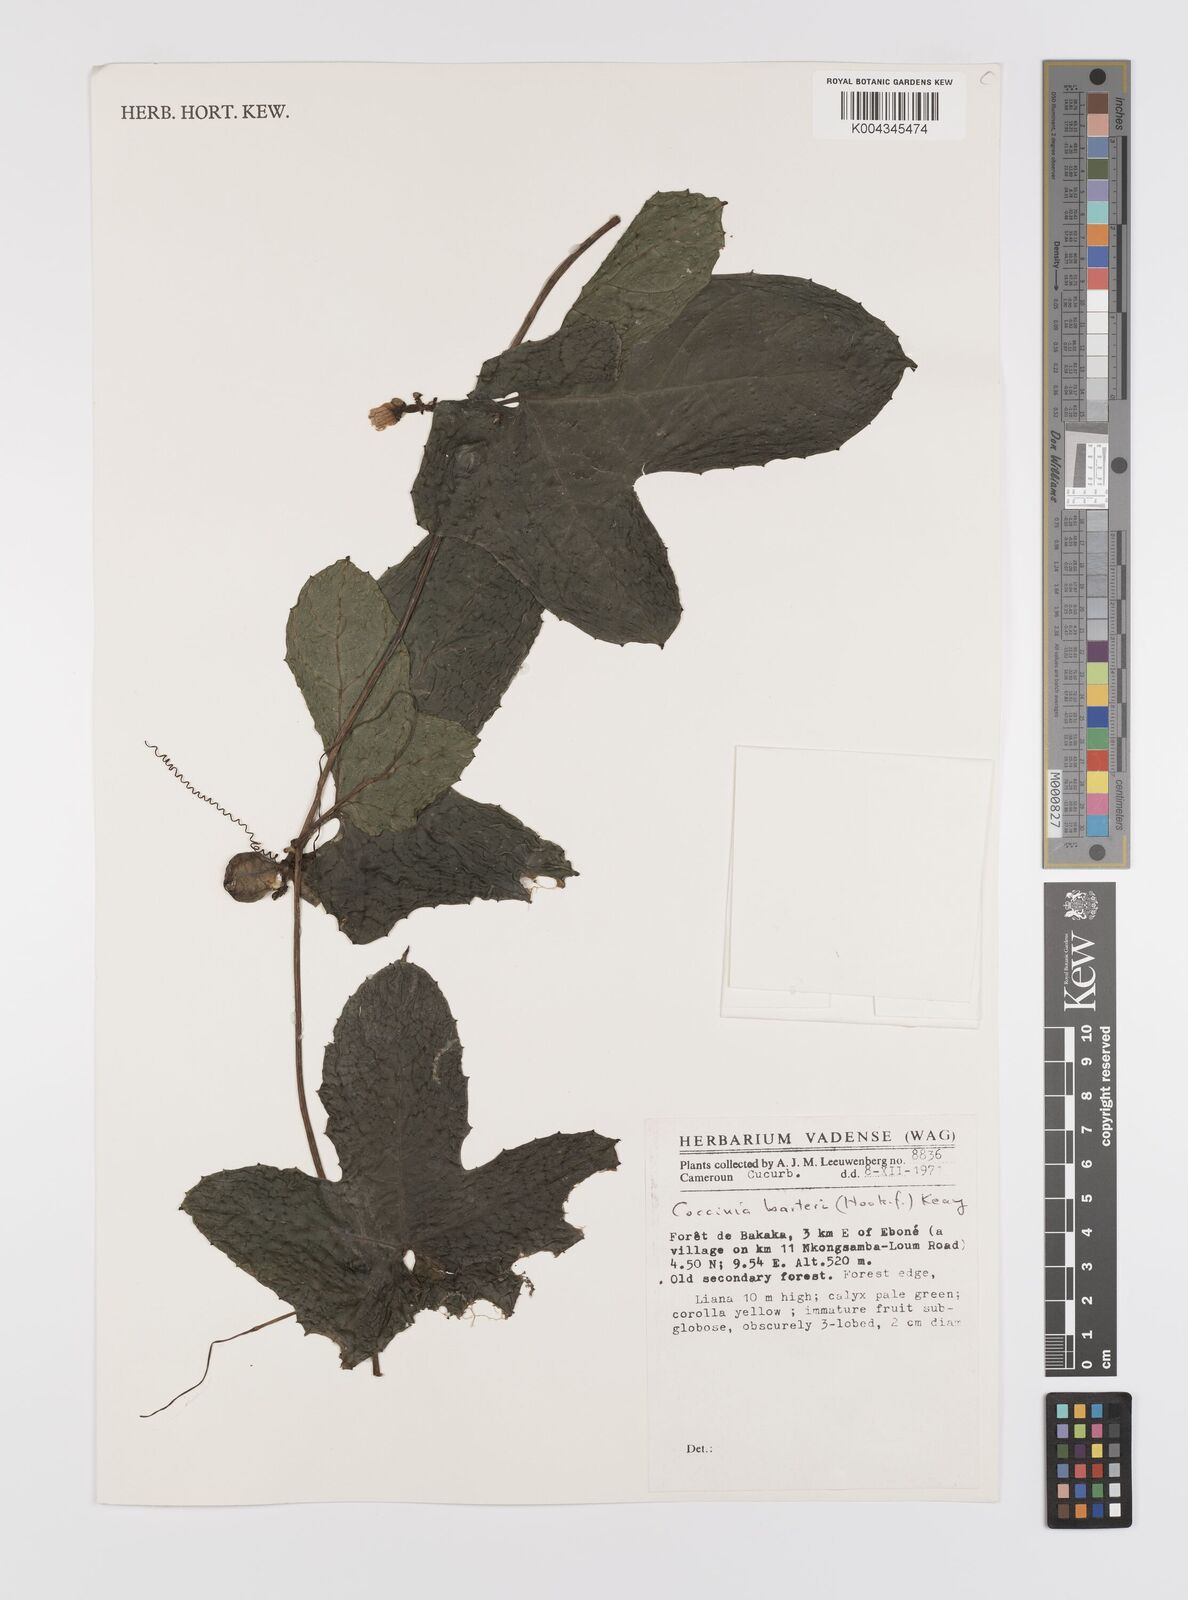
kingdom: Plantae
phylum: Tracheophyta
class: Magnoliopsida
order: Cucurbitales
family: Cucurbitaceae
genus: Coccinia
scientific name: Coccinia barteri
